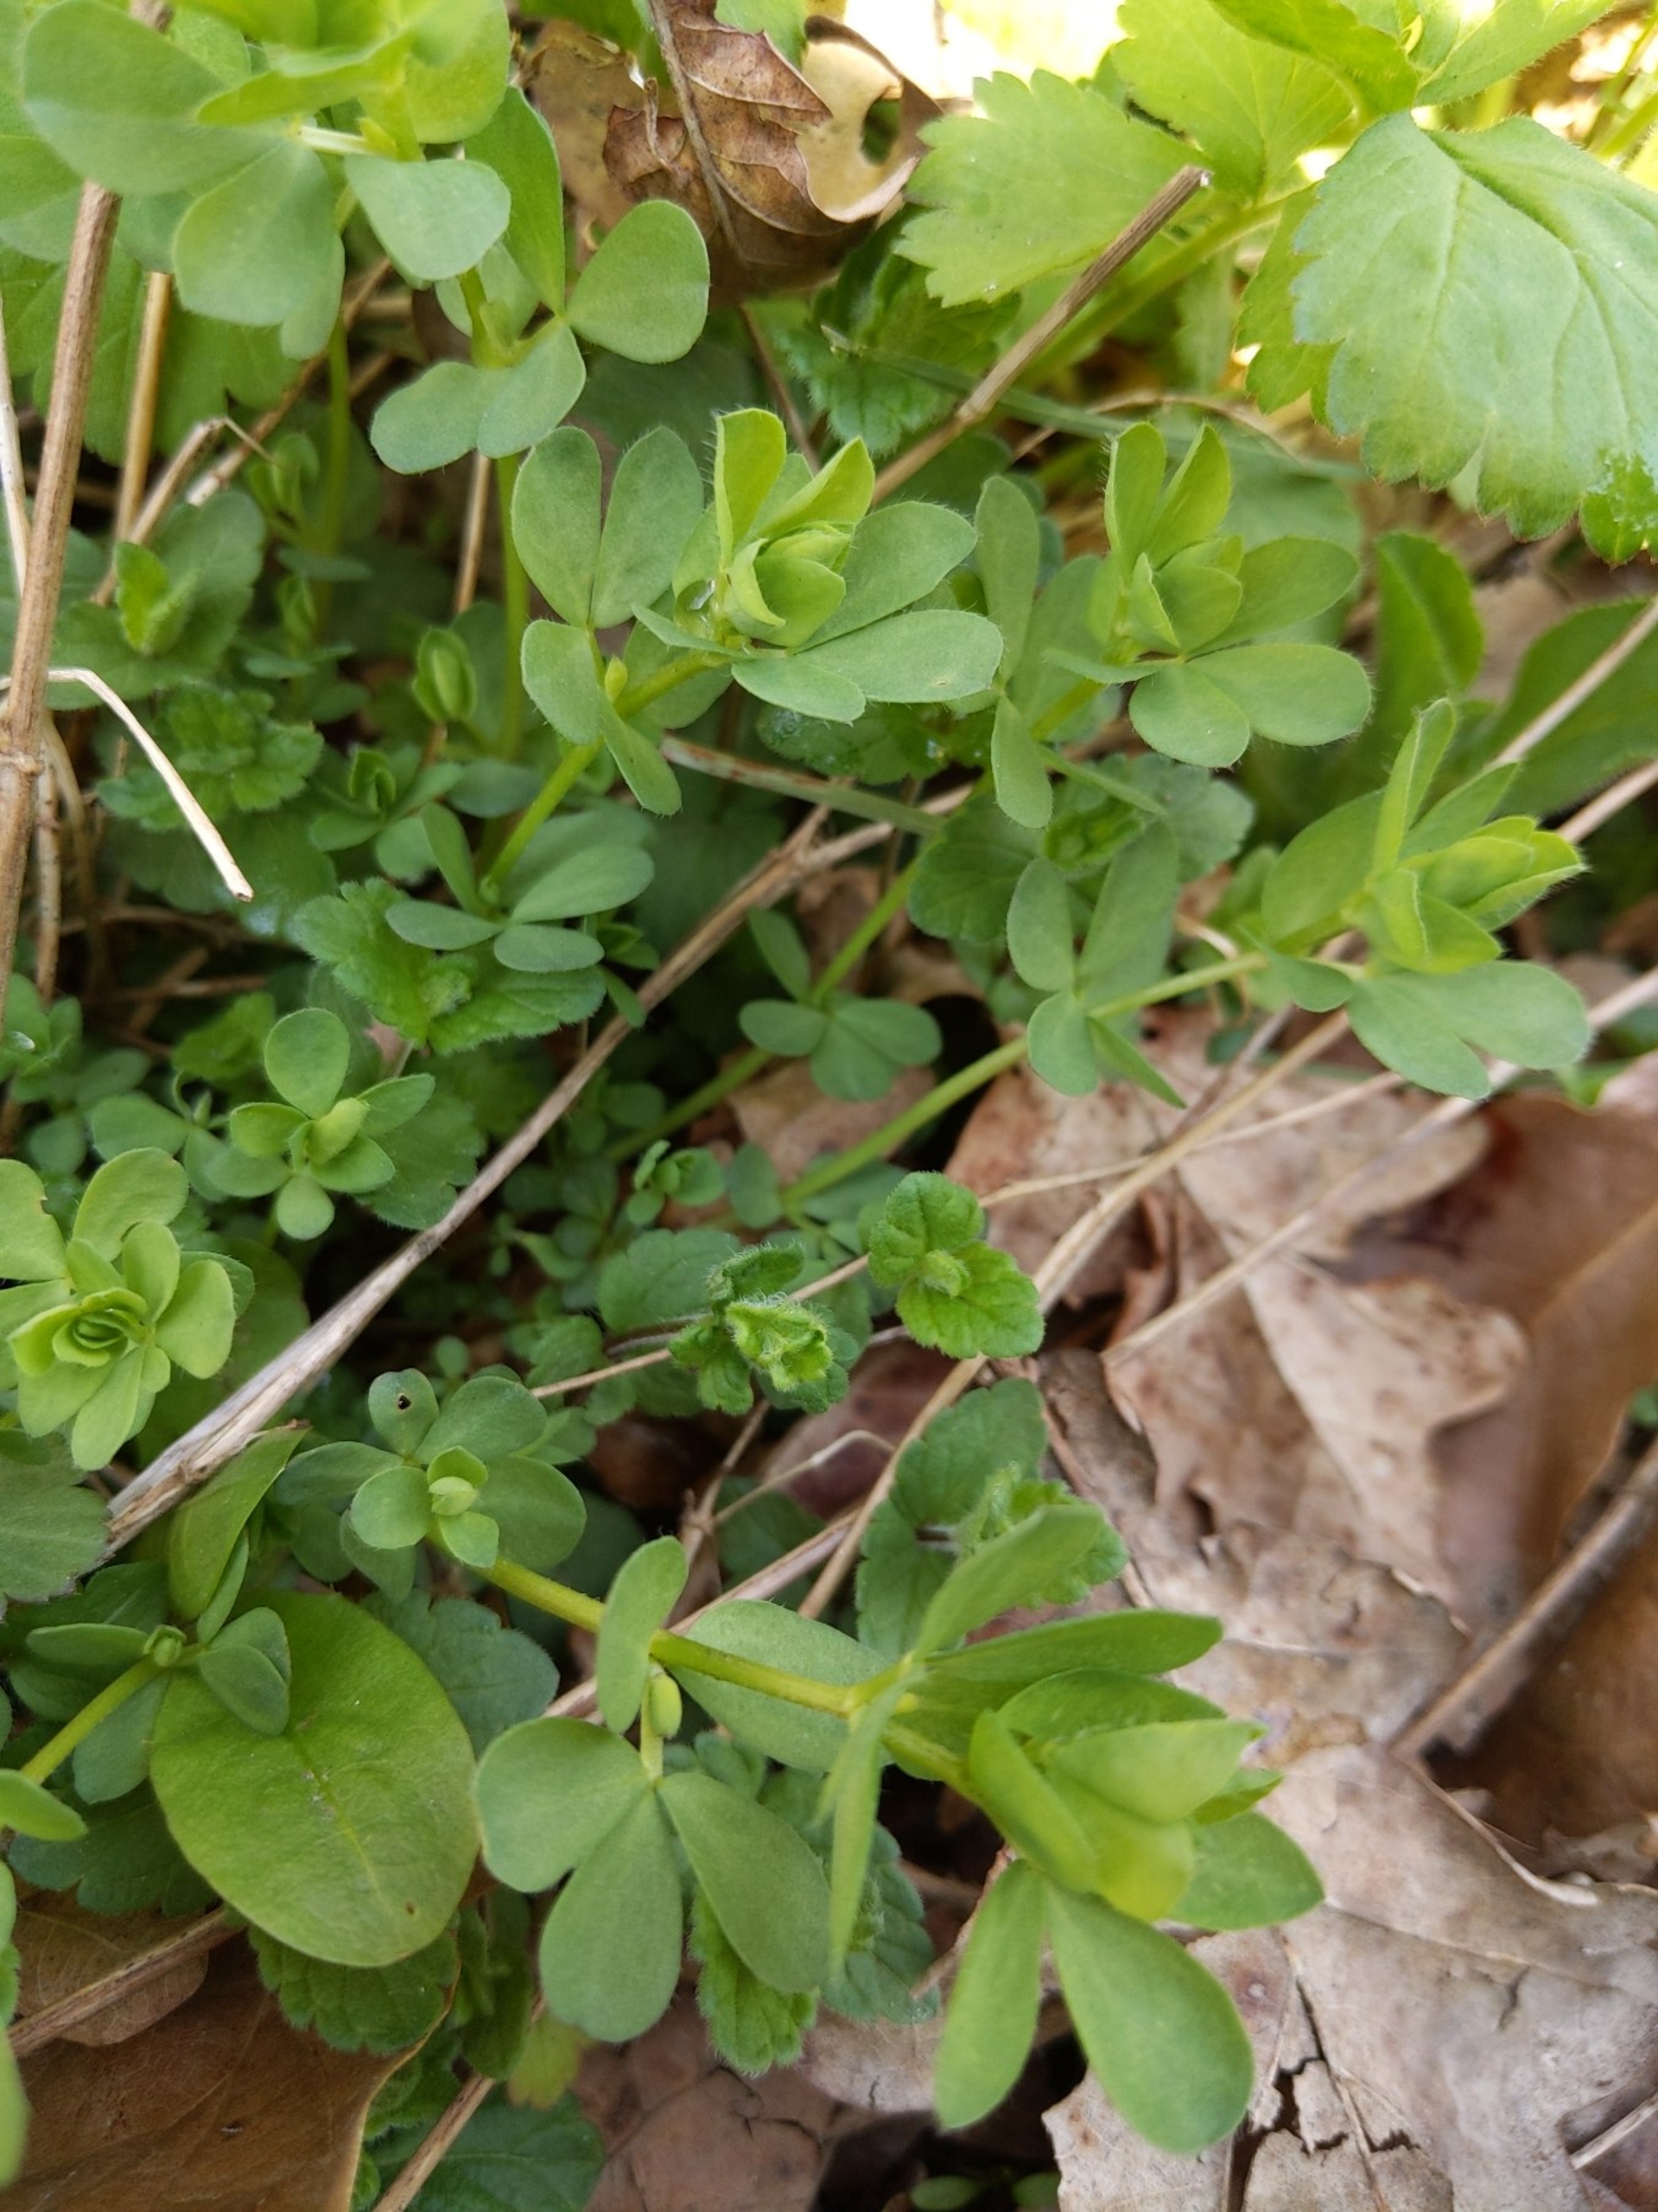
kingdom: Plantae
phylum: Tracheophyta
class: Magnoliopsida
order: Fabales
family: Fabaceae
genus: Lotus
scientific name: Lotus corniculatus
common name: Almindelig kællingetand
